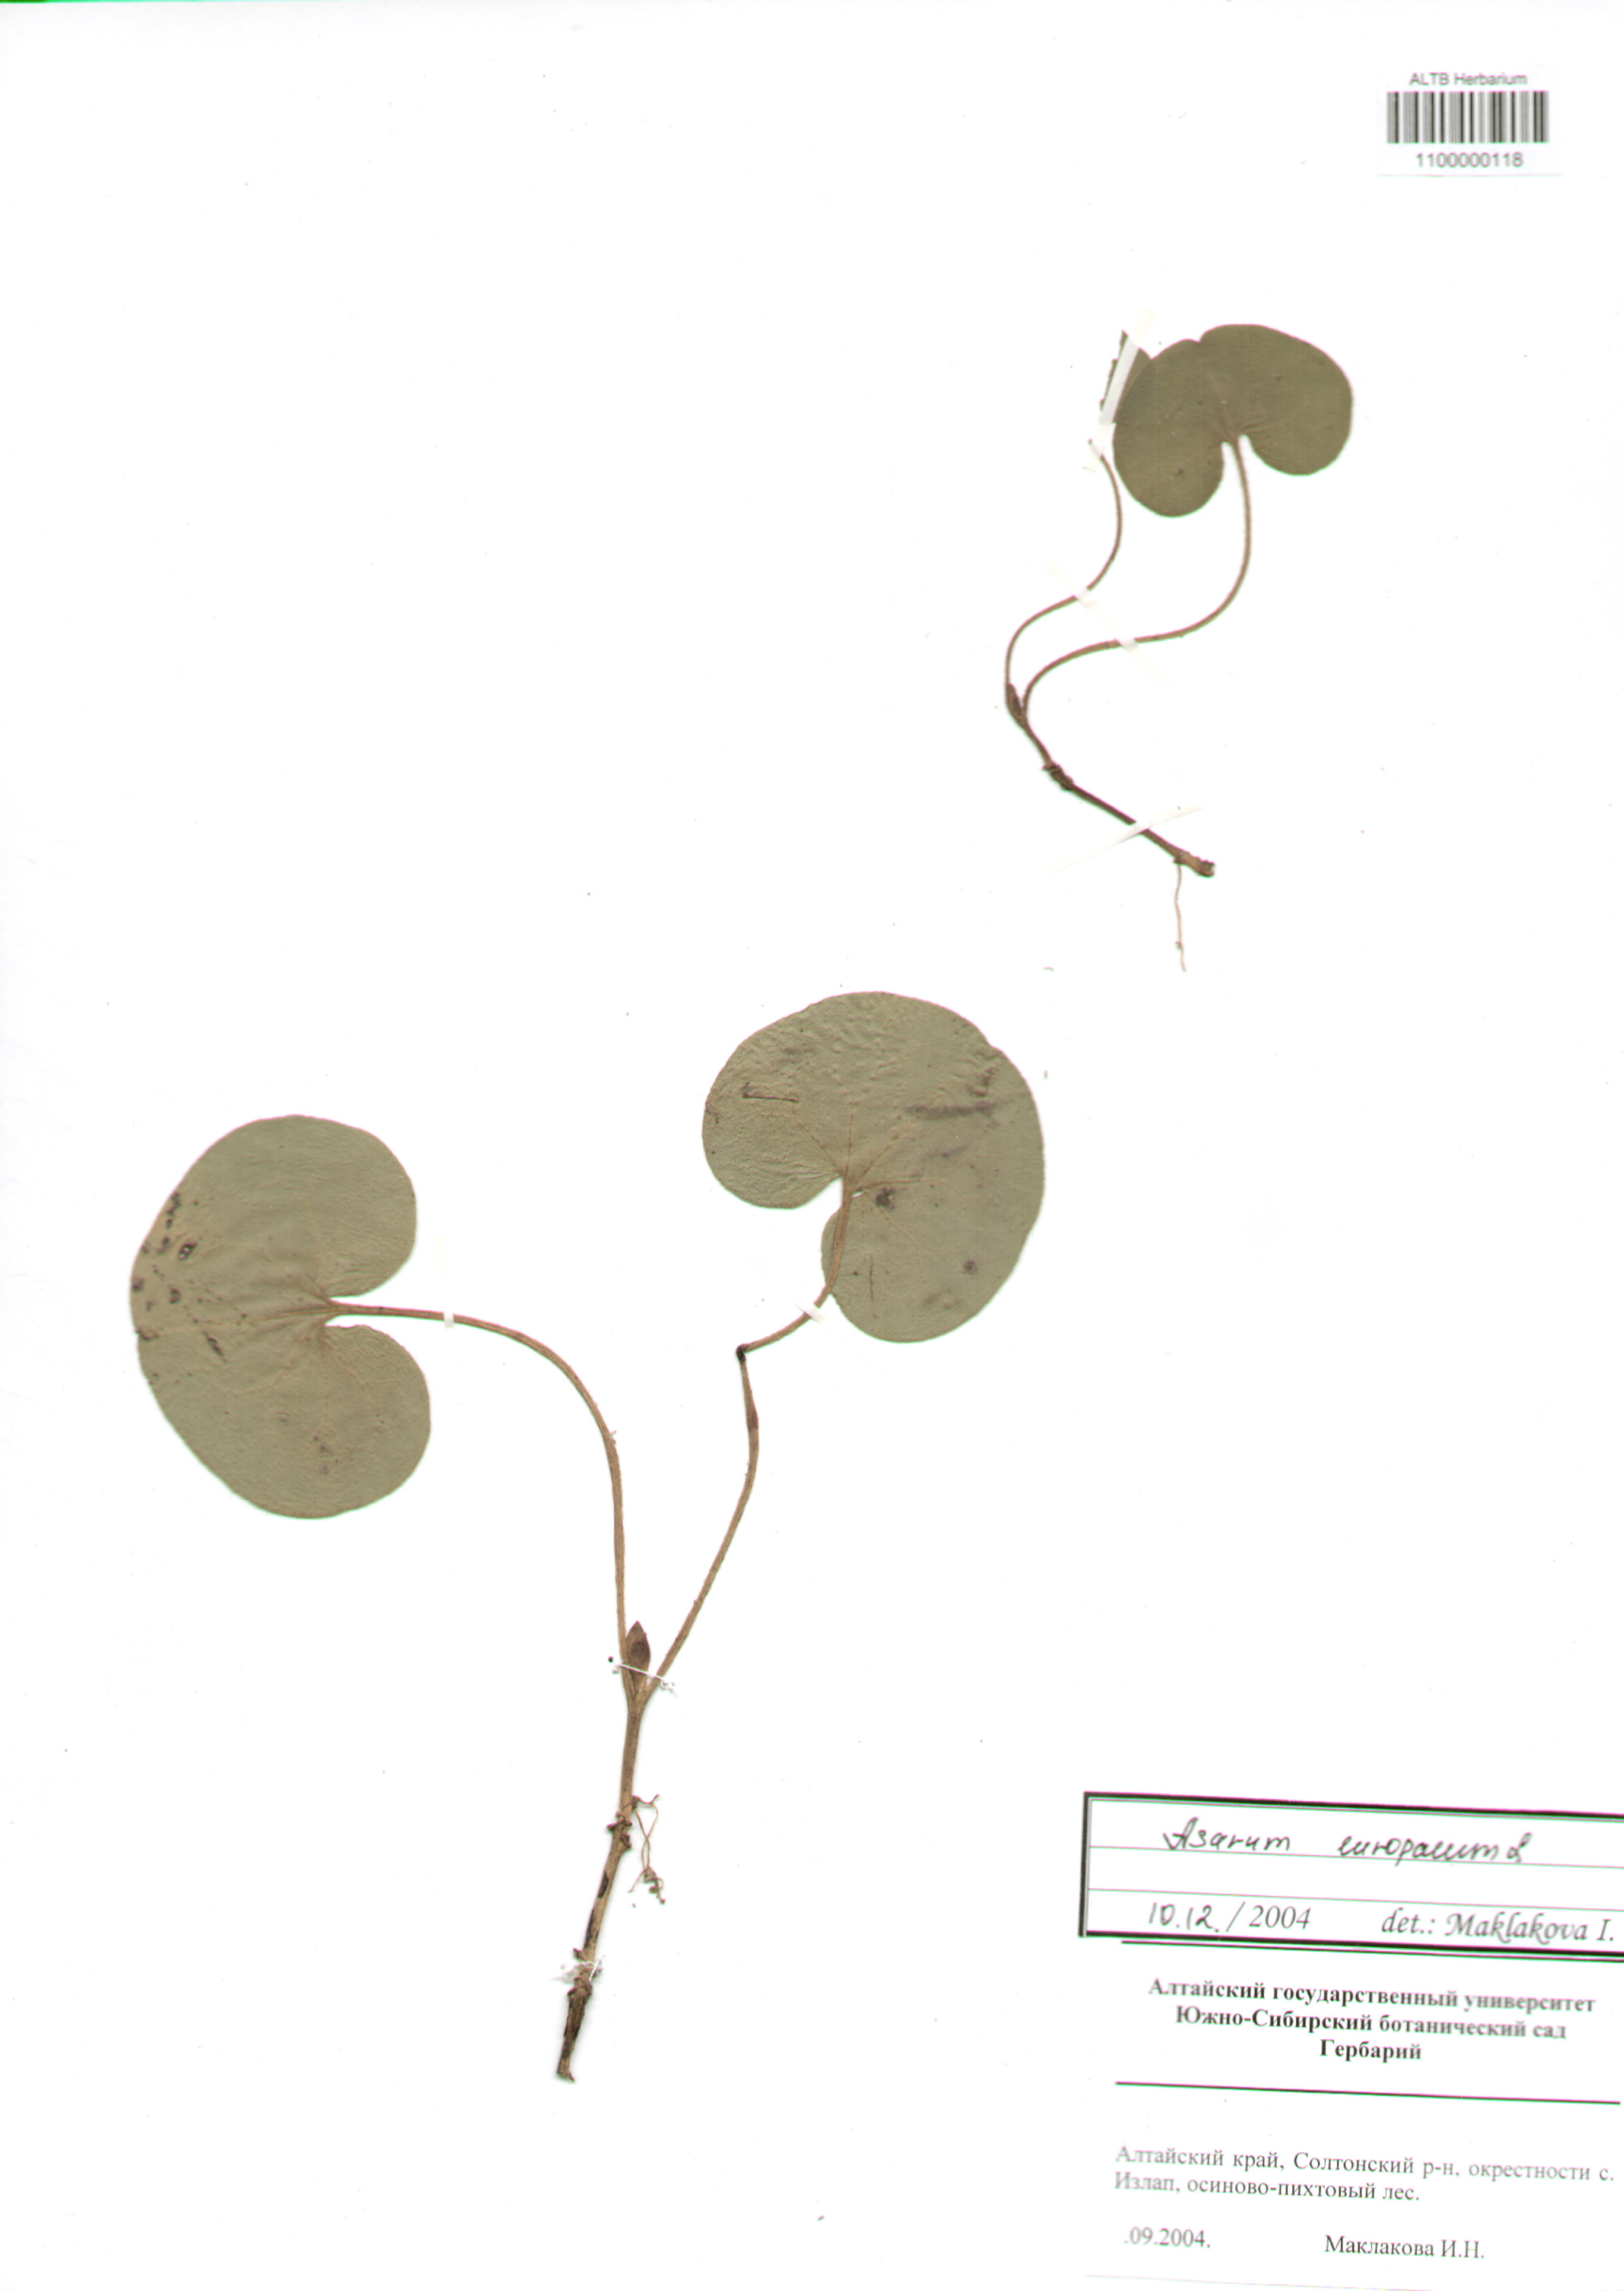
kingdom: Plantae
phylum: Tracheophyta
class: Magnoliopsida
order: Piperales
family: Aristolochiaceae
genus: Asarum
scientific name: Asarum europaeum
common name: Asarabacca
